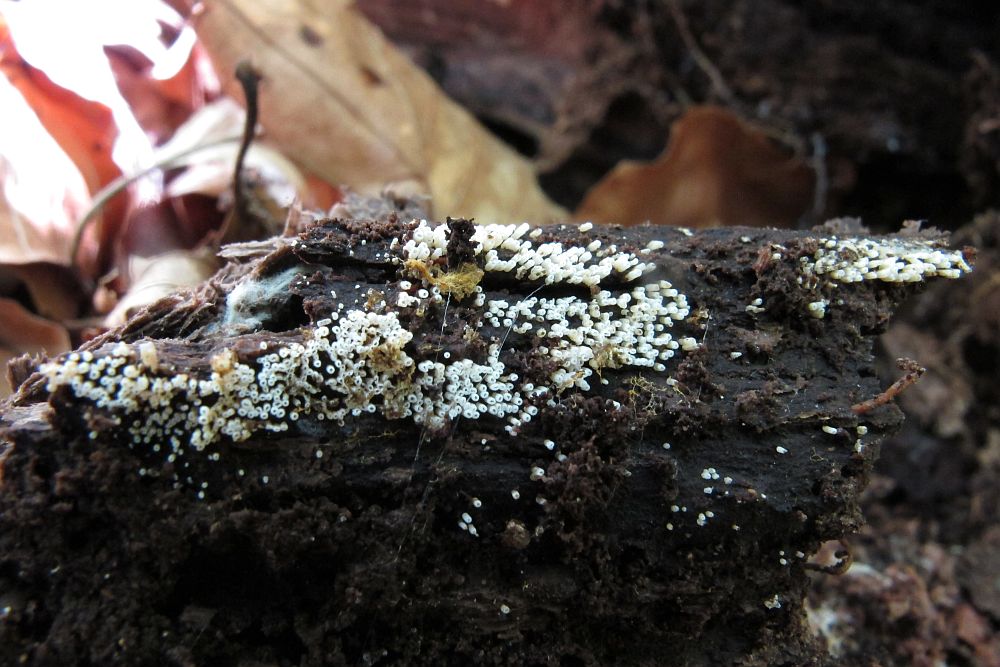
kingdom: Fungi
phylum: Basidiomycota
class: Agaricomycetes
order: Agaricales
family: Marasmiaceae
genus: Henningsomyces
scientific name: Henningsomyces candidus
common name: glat hængerør
